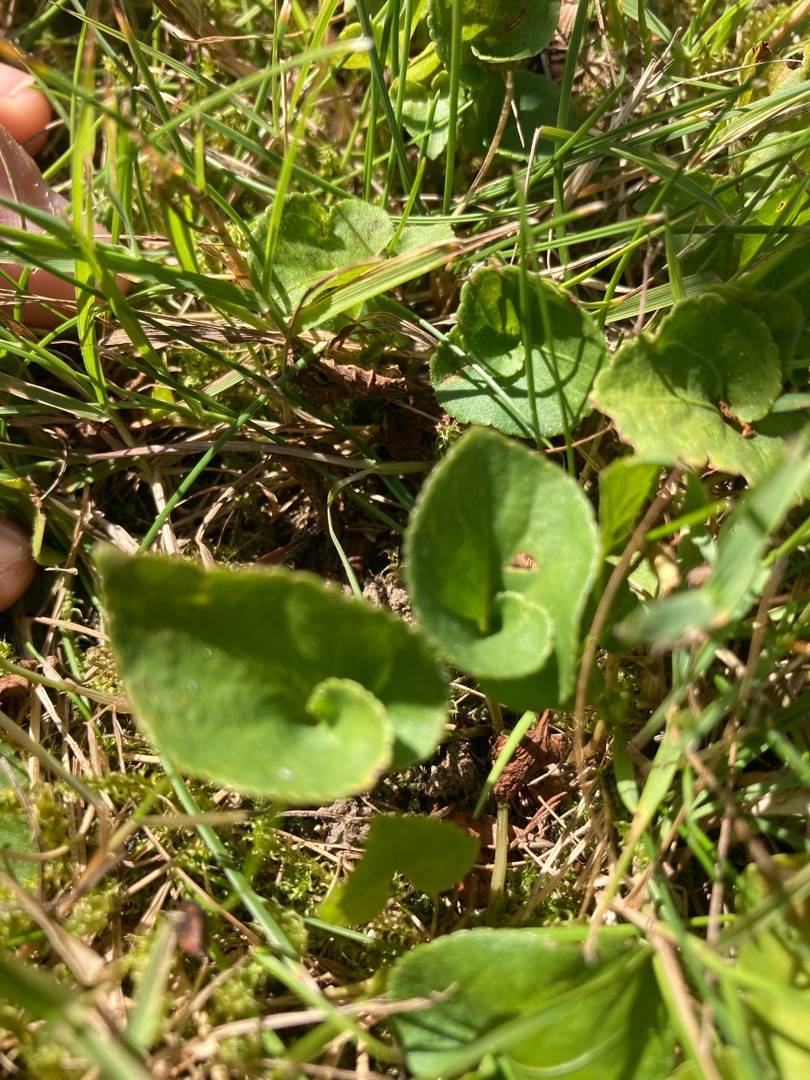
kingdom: Plantae
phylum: Tracheophyta
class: Magnoliopsida
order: Malpighiales
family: Violaceae
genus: Viola
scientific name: Viola
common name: Violslægten
